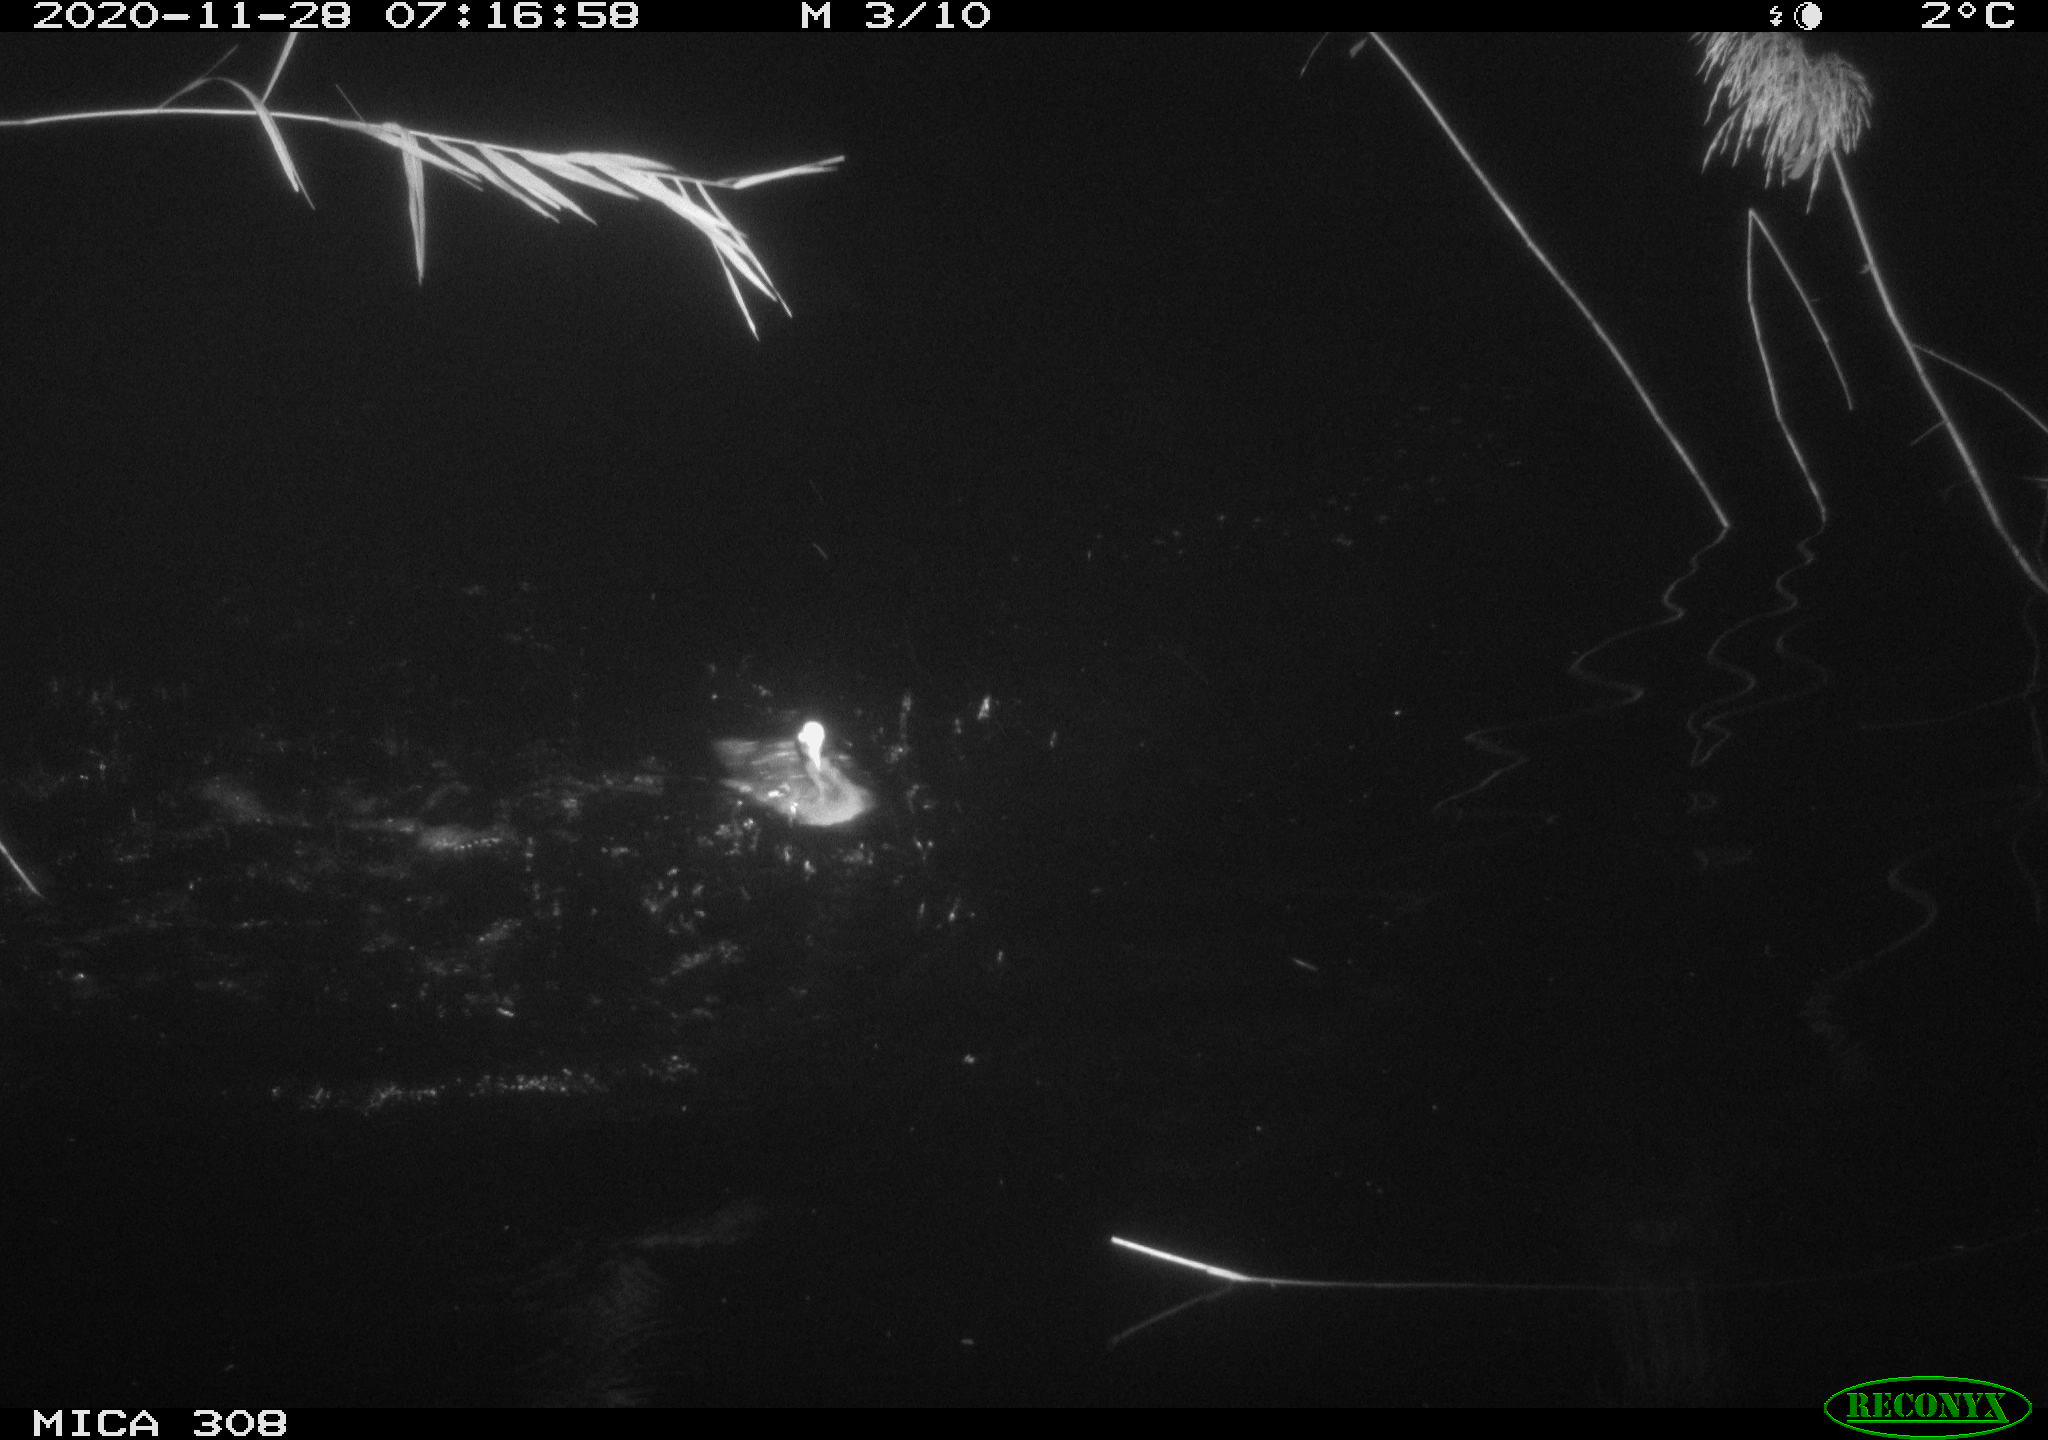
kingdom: Animalia
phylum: Chordata
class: Aves
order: Gruiformes
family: Rallidae
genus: Fulica
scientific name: Fulica atra
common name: Eurasian coot
